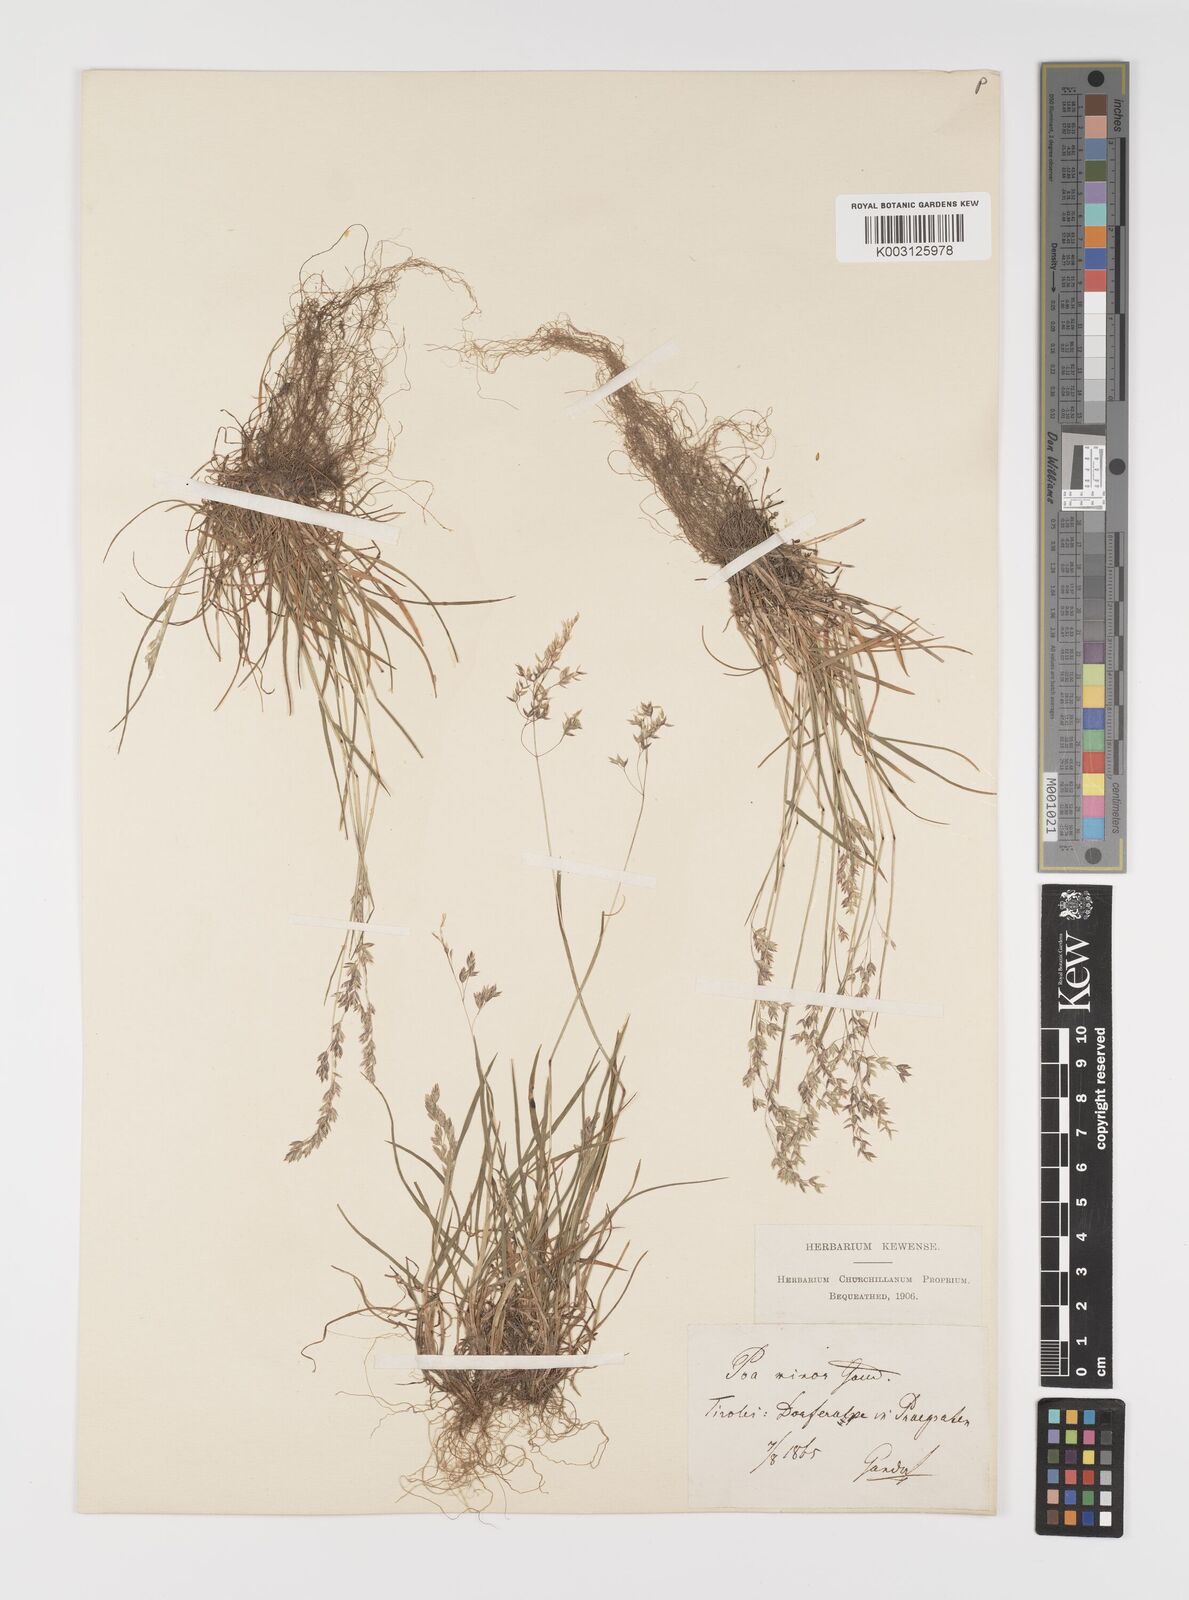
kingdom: Plantae
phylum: Tracheophyta
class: Liliopsida
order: Poales
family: Poaceae
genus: Poa
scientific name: Poa minor
